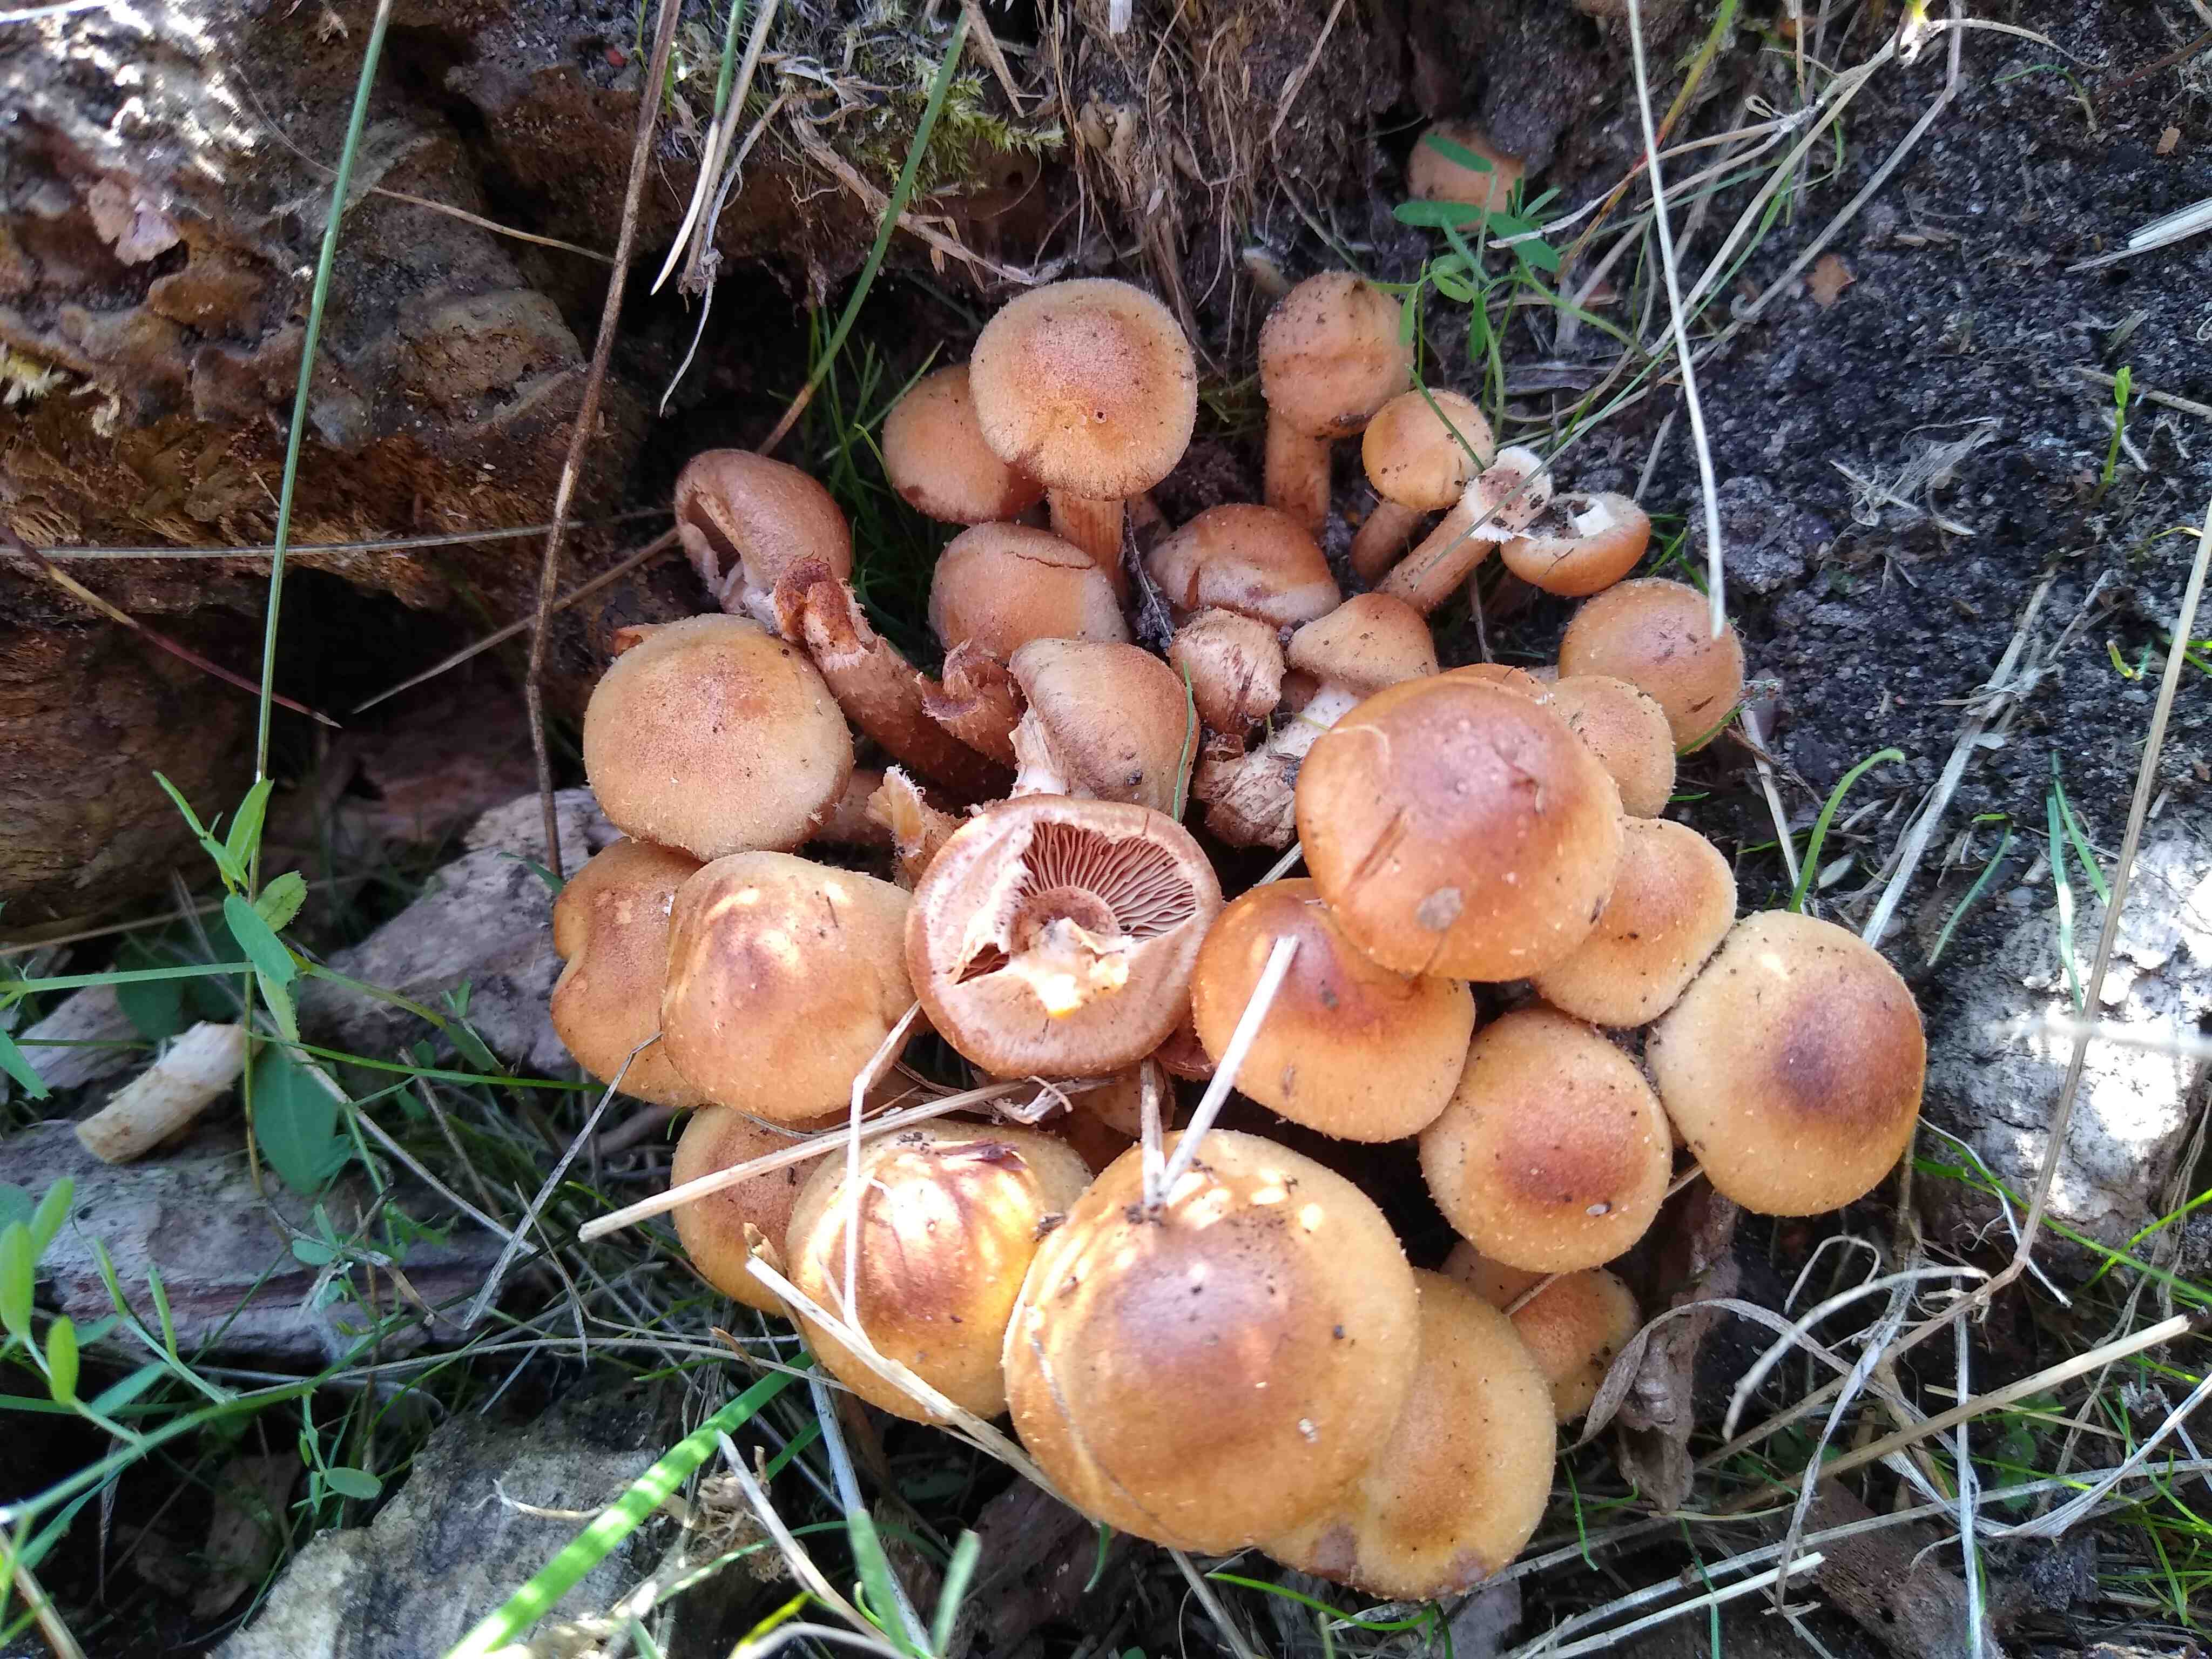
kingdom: Fungi
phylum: Basidiomycota
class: Agaricomycetes
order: Agaricales
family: Strophariaceae
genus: Kuehneromyces
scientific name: Kuehneromyces mutabilis
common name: foranderlig skælhat
